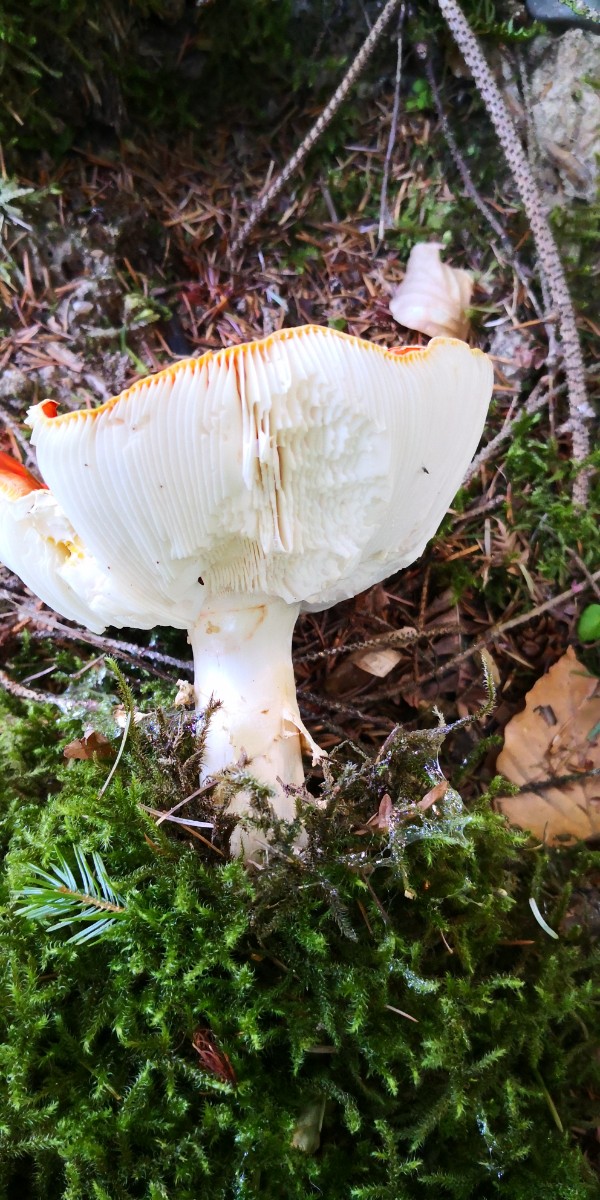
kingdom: Fungi
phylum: Basidiomycota
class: Agaricomycetes
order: Agaricales
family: Amanitaceae
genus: Amanita
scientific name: Amanita muscaria
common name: rød fluesvamp
